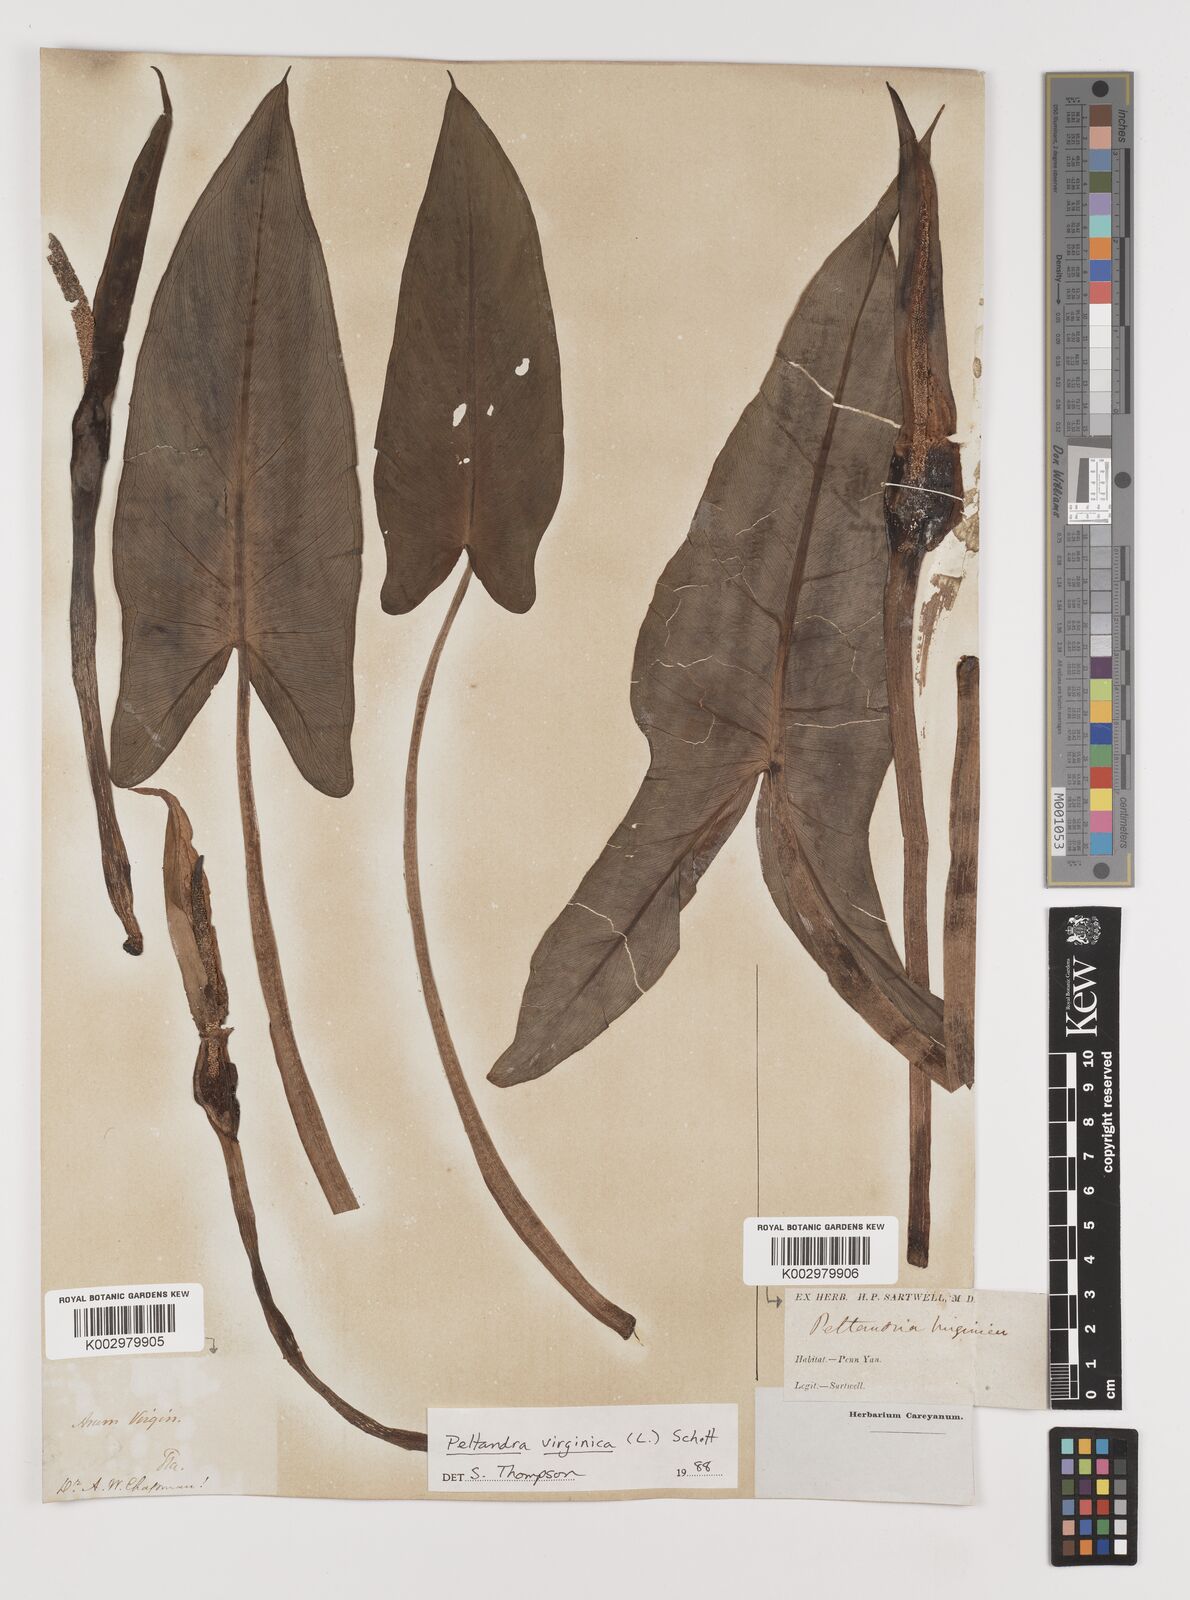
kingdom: Plantae
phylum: Tracheophyta
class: Liliopsida
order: Alismatales
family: Araceae
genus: Peltandra
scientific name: Peltandra virginica
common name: Arrow arum
